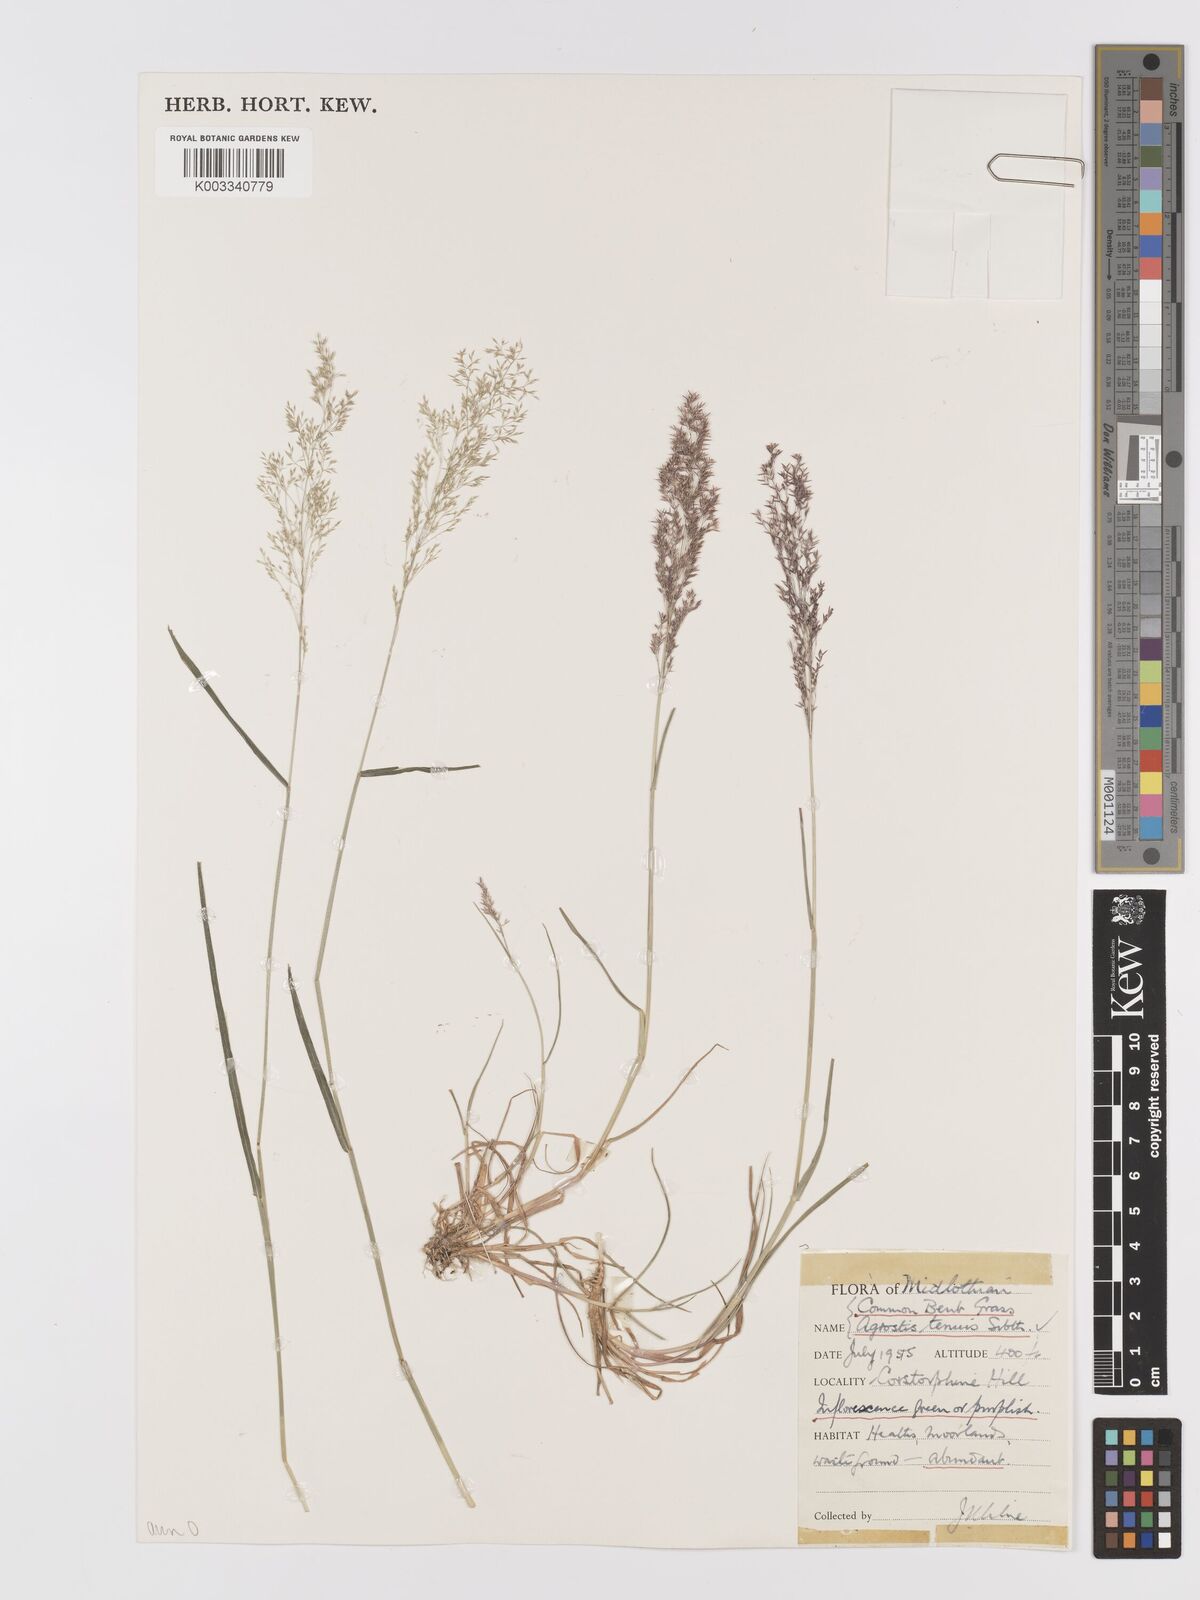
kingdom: Plantae
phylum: Tracheophyta
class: Liliopsida
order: Poales
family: Poaceae
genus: Agrostis
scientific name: Agrostis capillaris
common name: Colonial bentgrass
